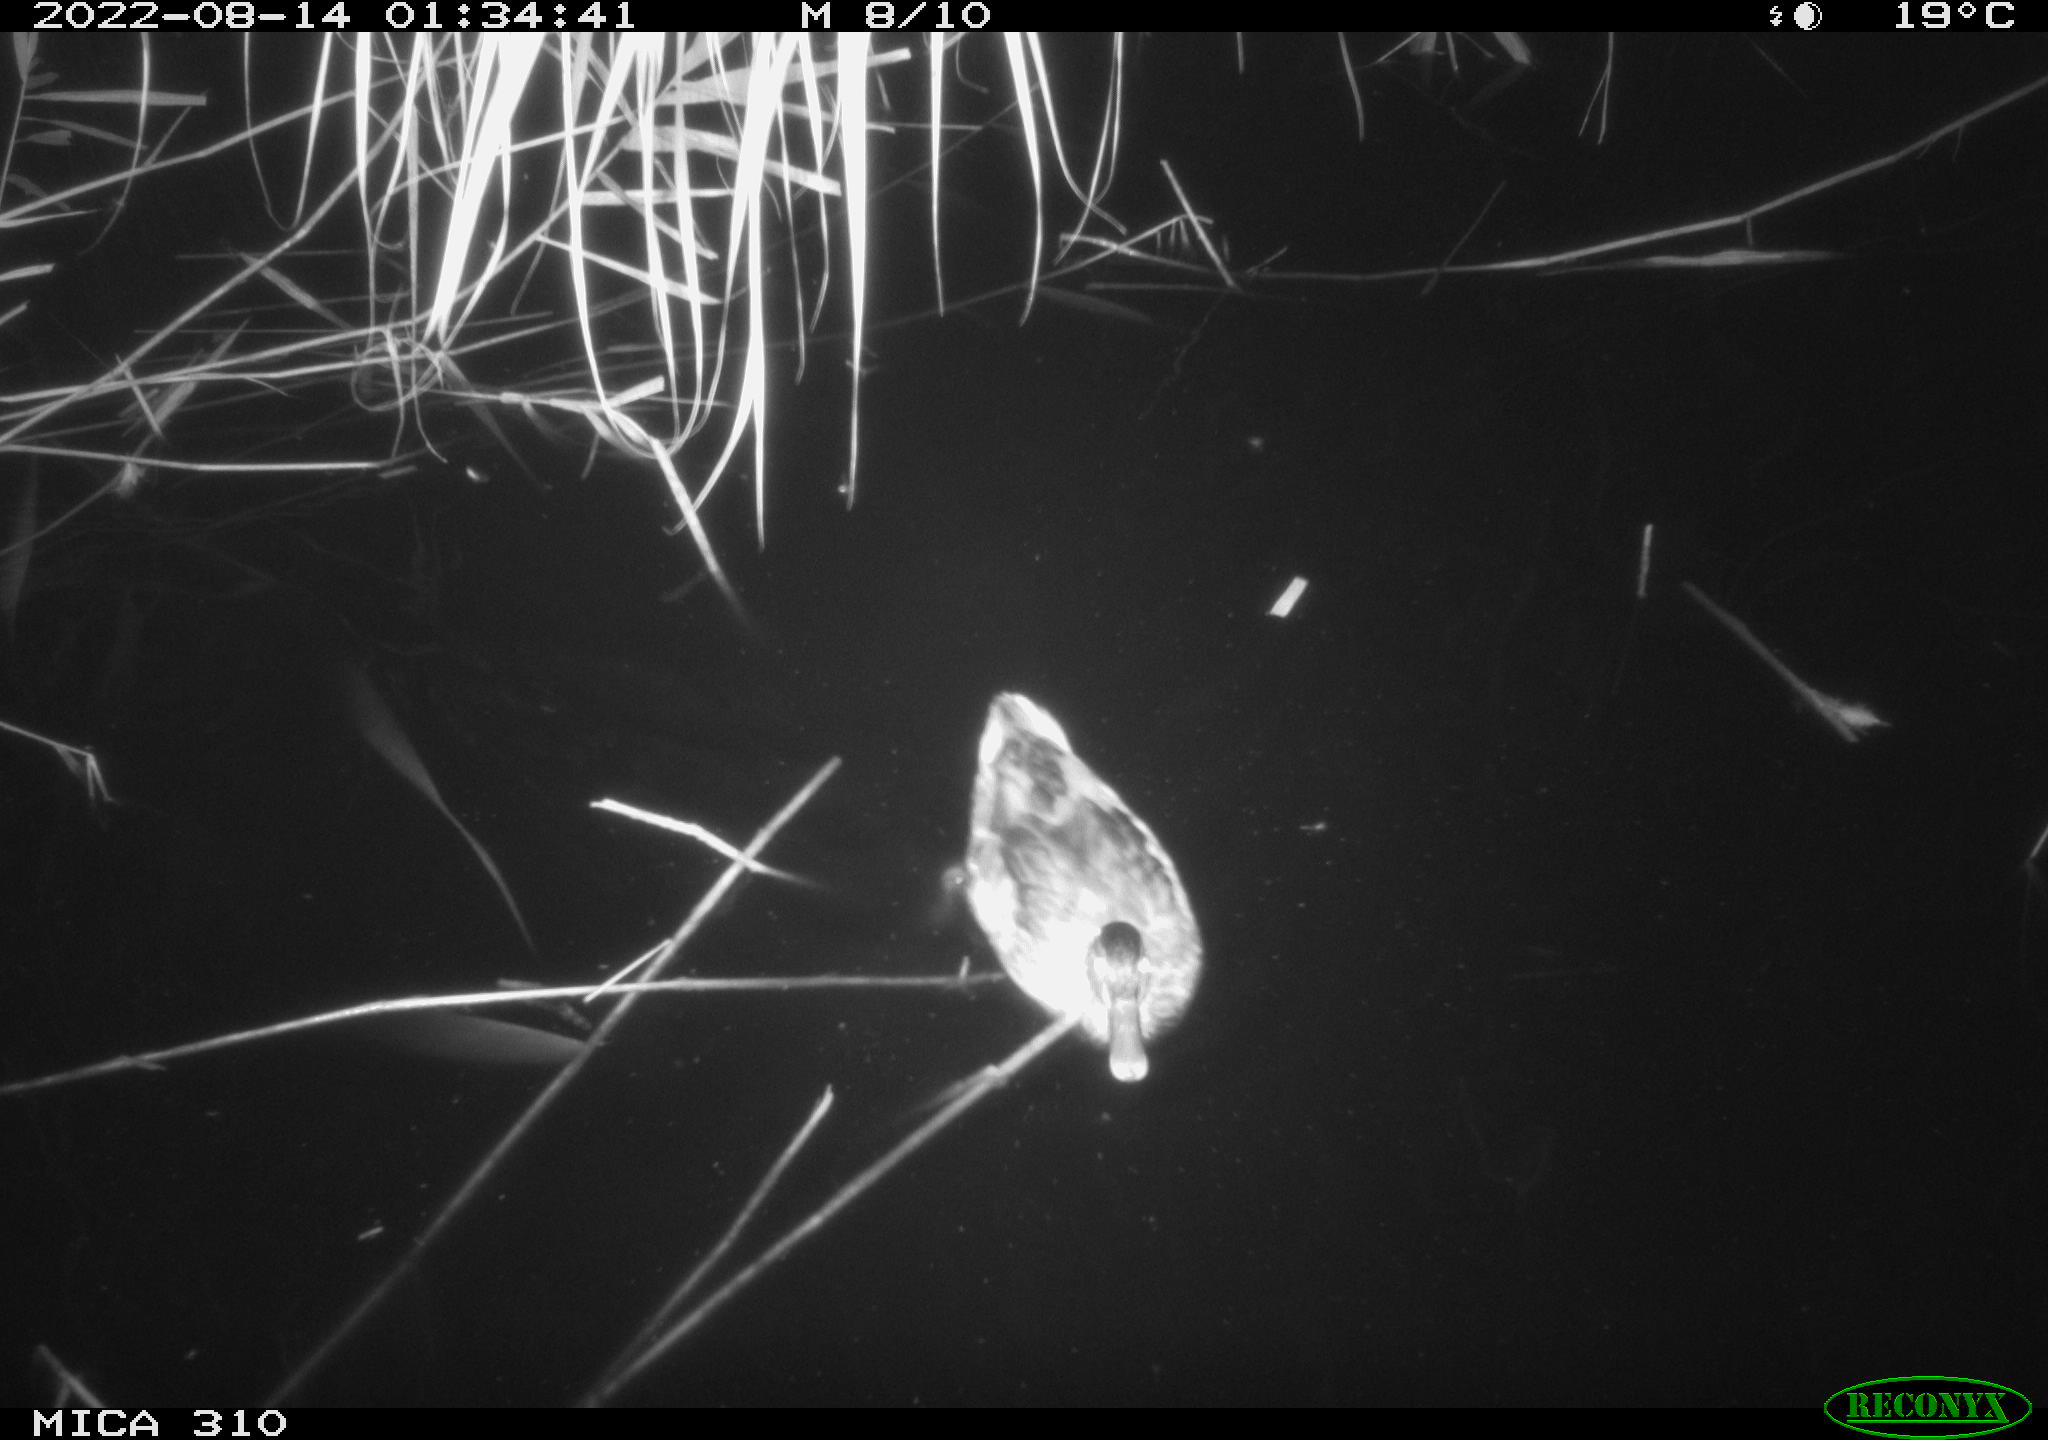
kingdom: Animalia
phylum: Chordata
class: Aves
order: Anseriformes
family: Anatidae
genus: Anas
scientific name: Anas platyrhynchos
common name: Mallard
